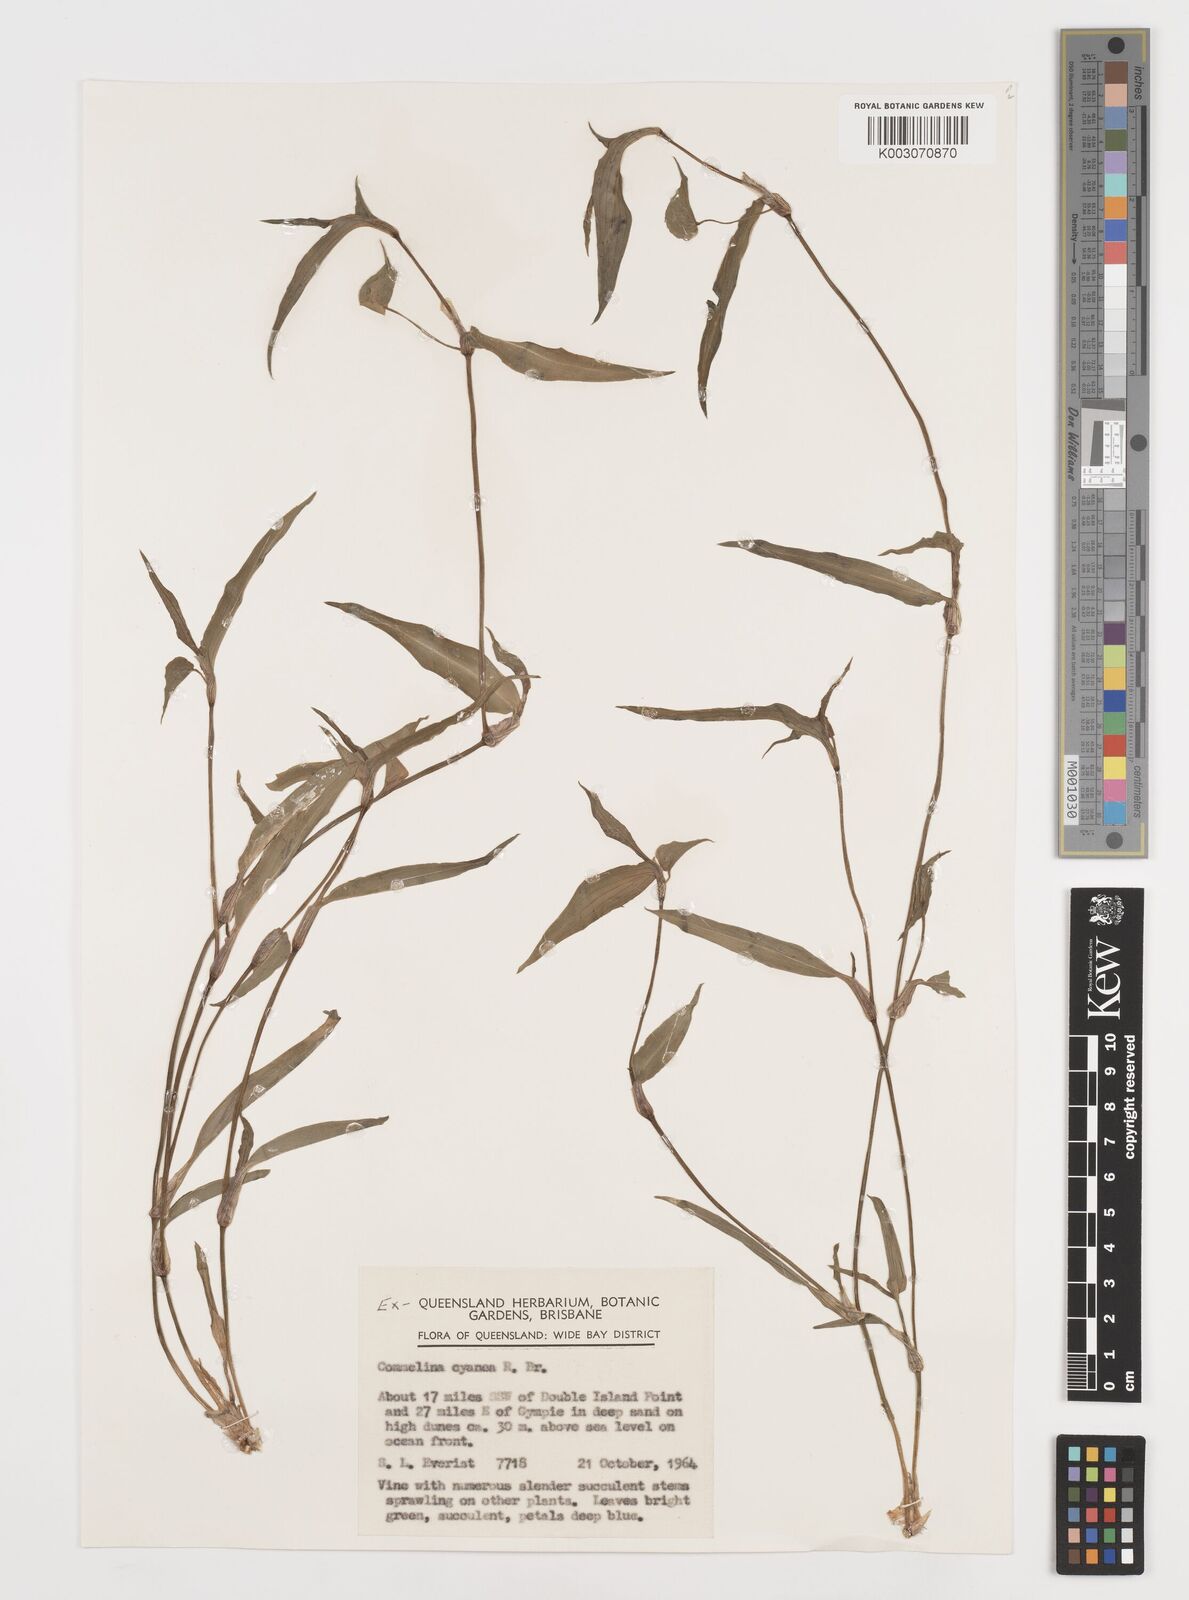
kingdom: Plantae
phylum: Tracheophyta
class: Liliopsida
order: Commelinales
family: Commelinaceae
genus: Commelina
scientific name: Commelina cyanea
